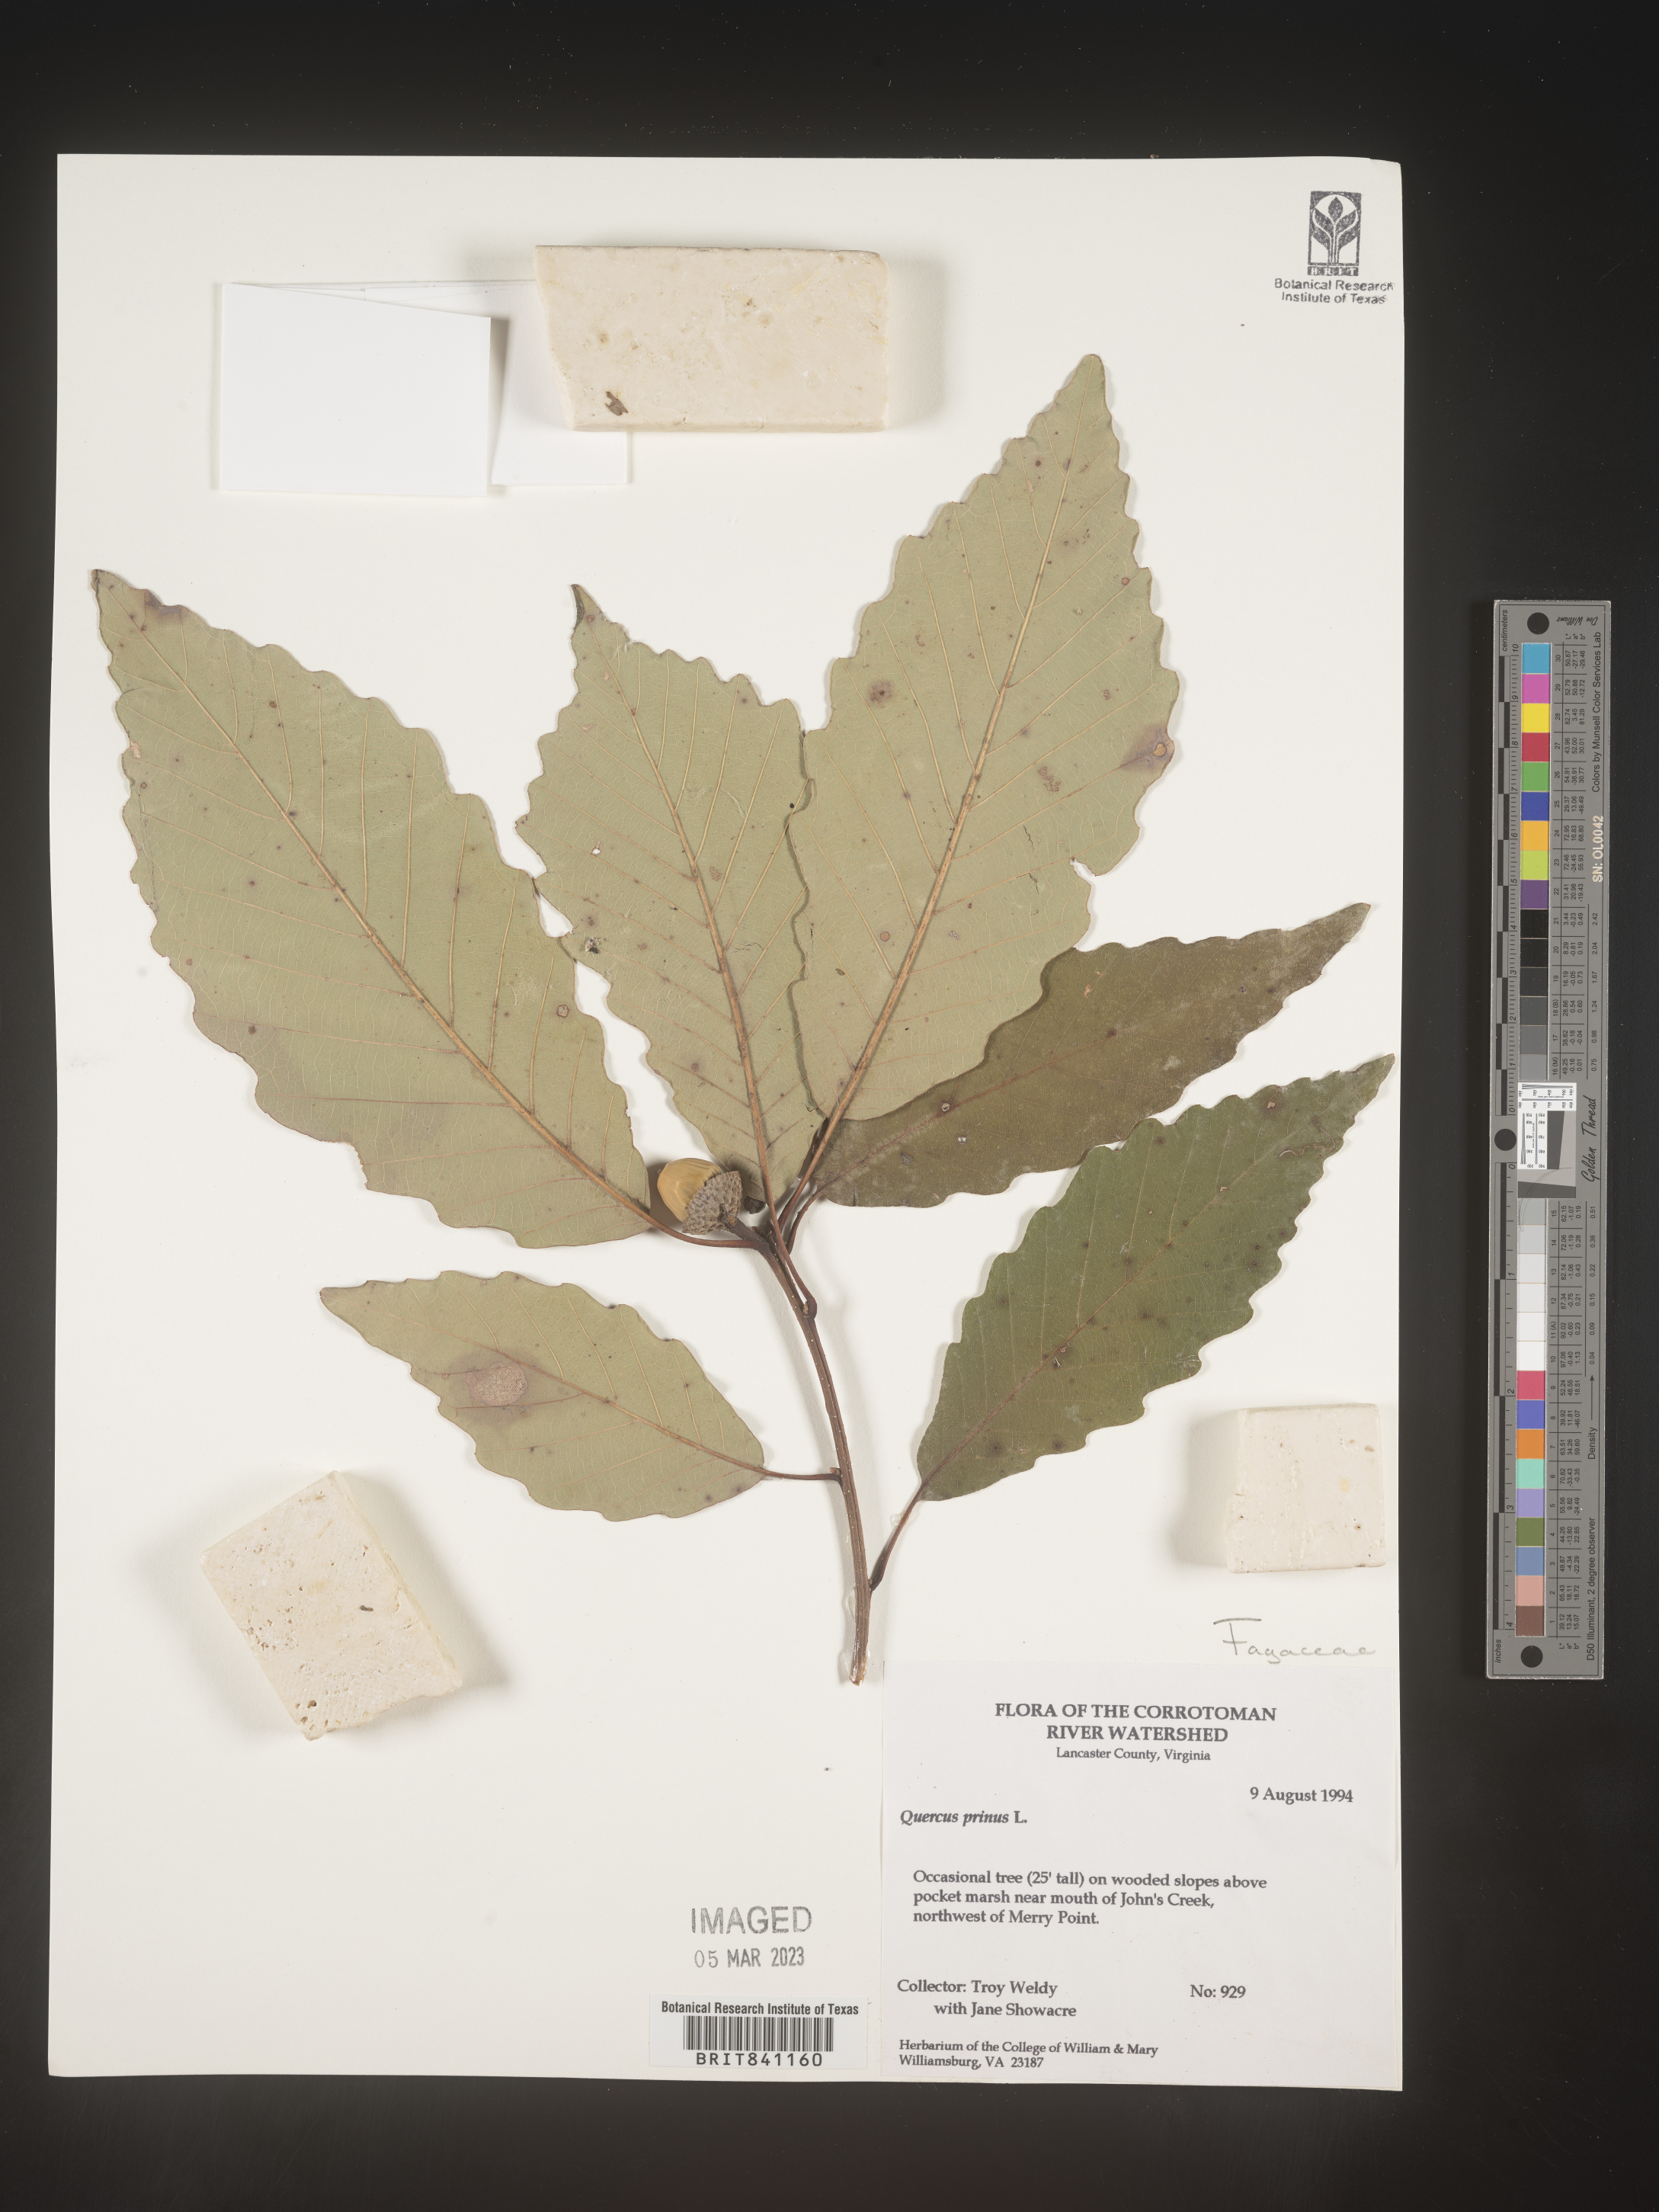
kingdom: Plantae
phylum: Tracheophyta
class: Magnoliopsida
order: Fagales
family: Fagaceae
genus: Quercus
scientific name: Quercus michauxii
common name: Swamp chestnut oak
